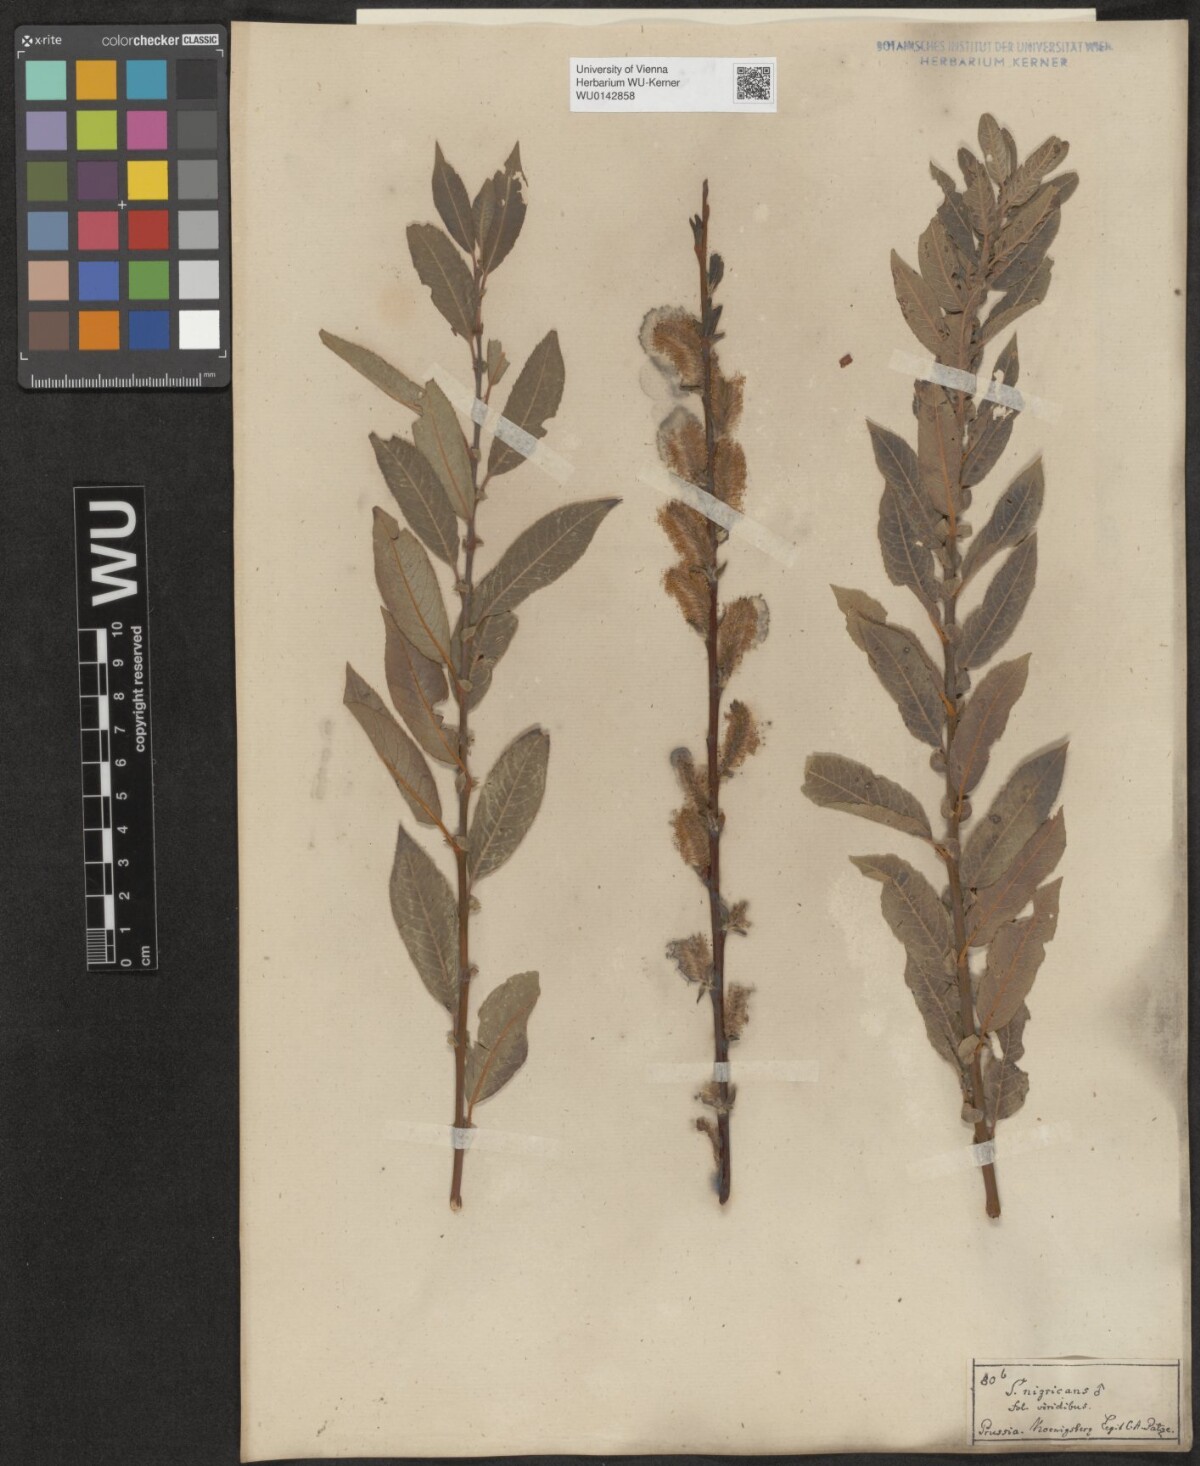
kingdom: Plantae
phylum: Tracheophyta
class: Magnoliopsida
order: Malpighiales
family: Salicaceae
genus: Salix
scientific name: Salix myrsinifolia
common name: Dark-leaved willow
